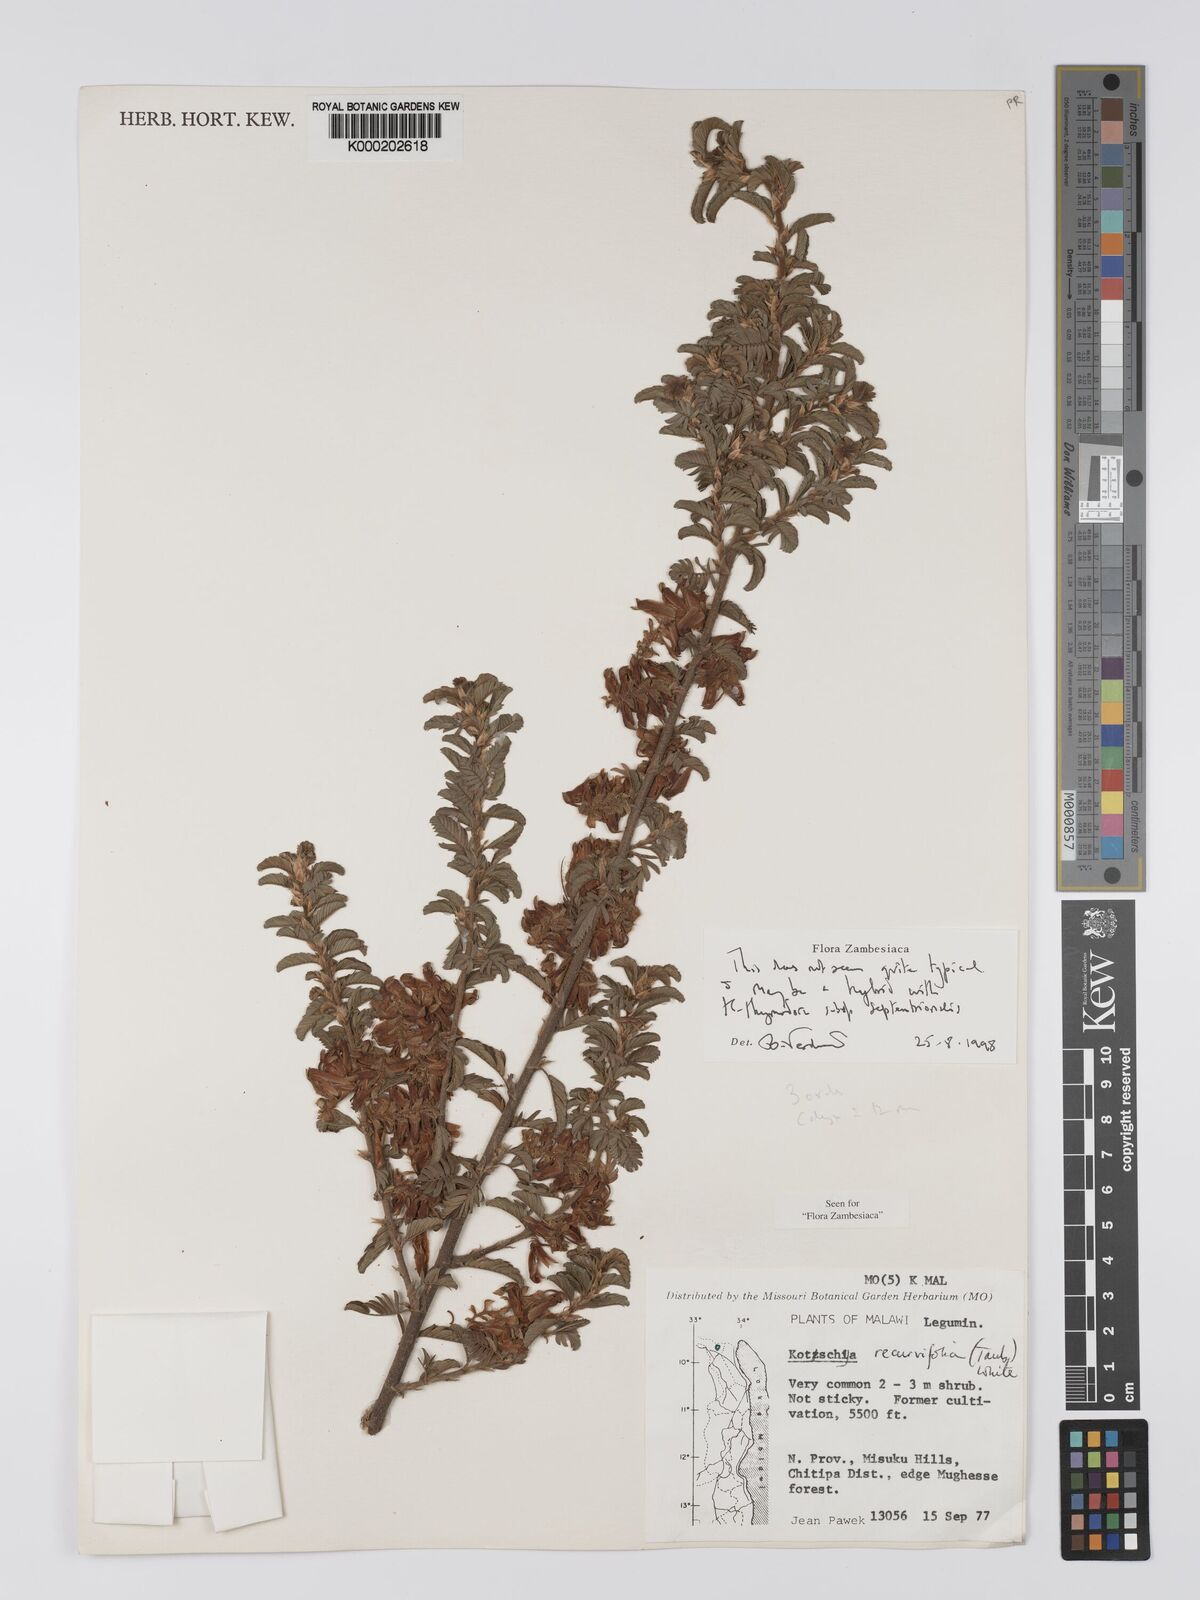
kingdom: Plantae
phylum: Tracheophyta
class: Magnoliopsida
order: Fabales
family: Fabaceae
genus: Kotschya
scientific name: Kotschya recurvifolia
